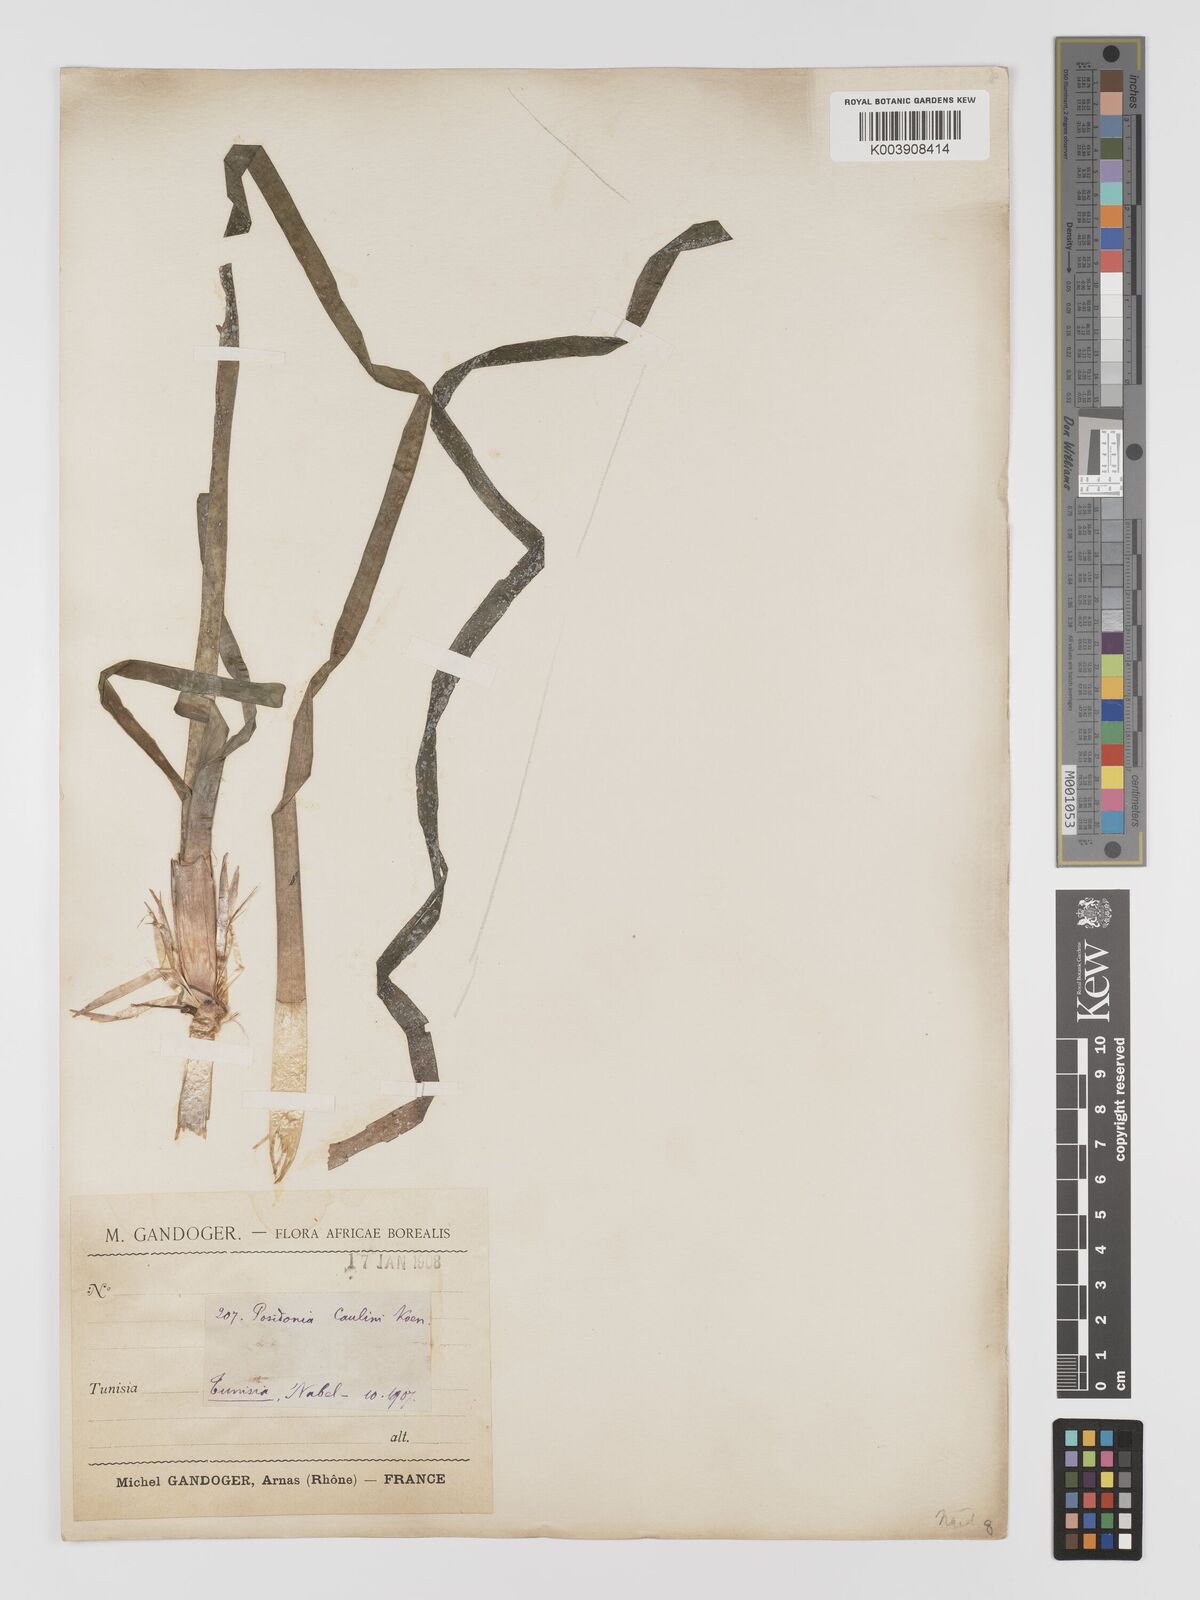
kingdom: Plantae
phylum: Tracheophyta
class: Liliopsida
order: Alismatales
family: Posidoniaceae
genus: Posidonia
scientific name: Posidonia
